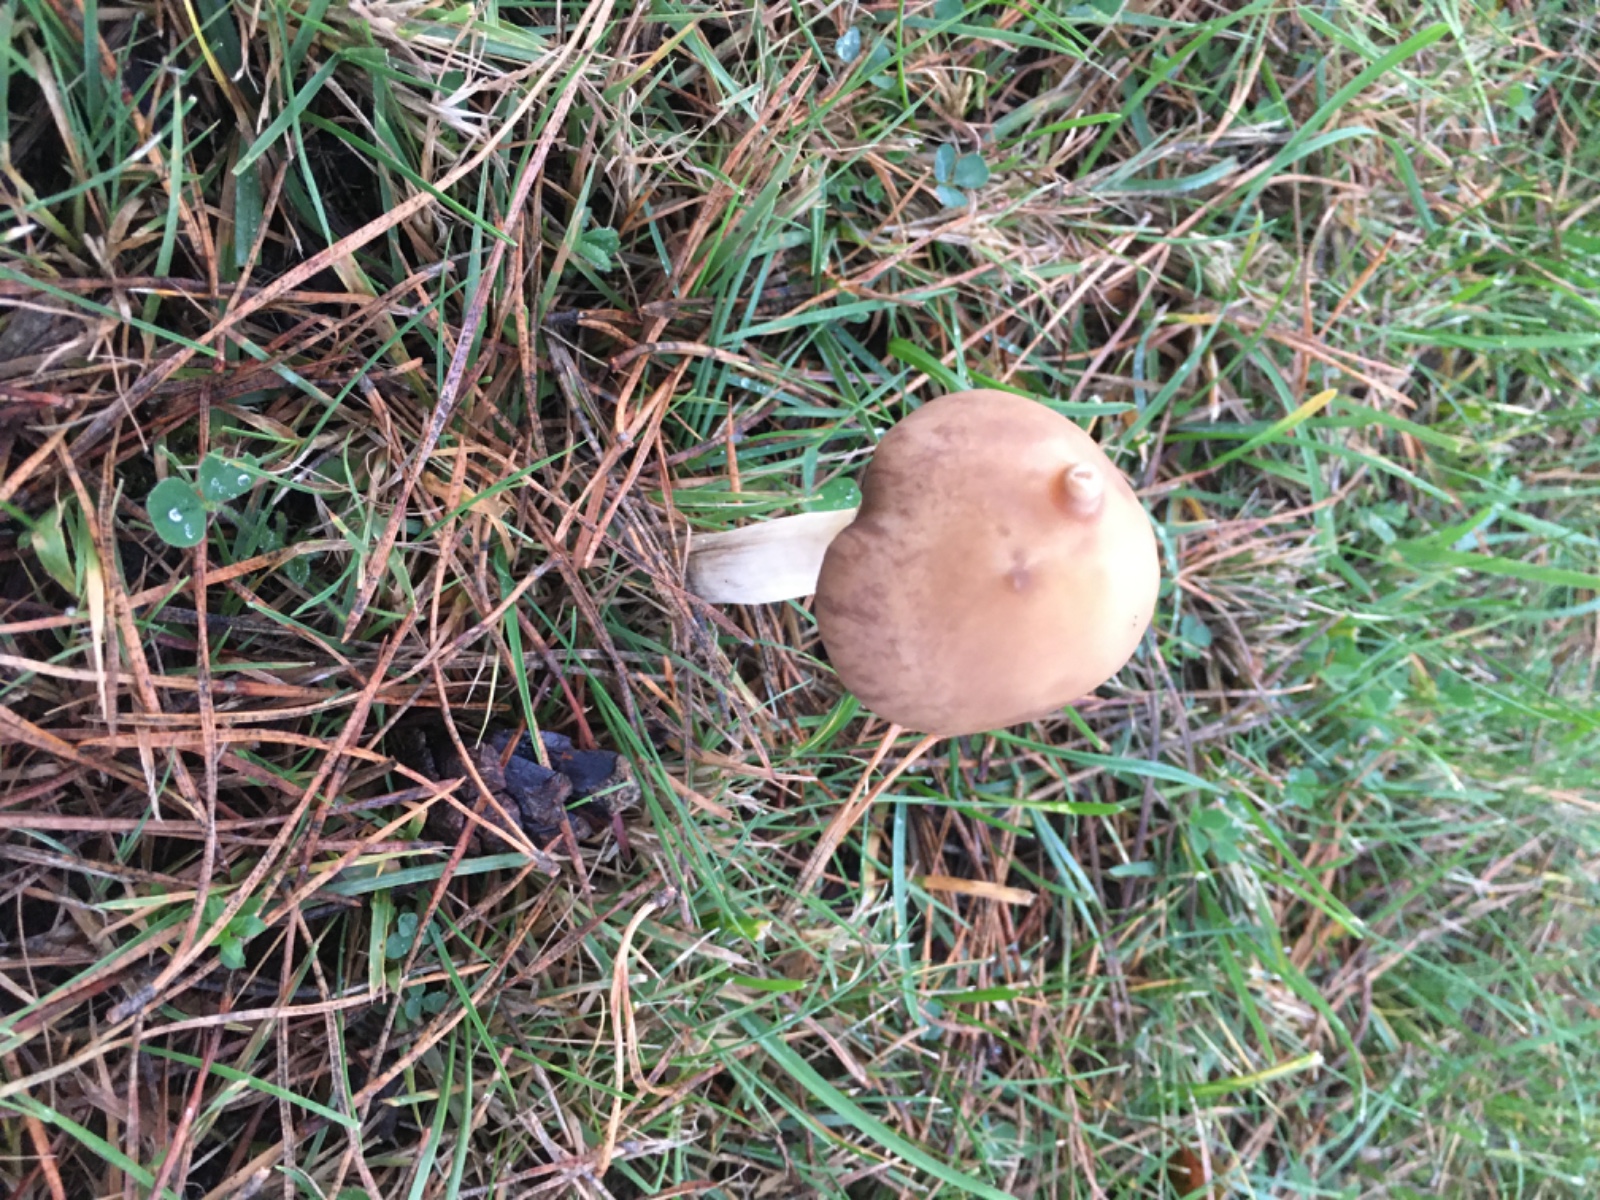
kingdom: Fungi
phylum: Basidiomycota
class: Agaricomycetes
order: Agaricales
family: Strophariaceae
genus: Agrocybe
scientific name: Agrocybe
